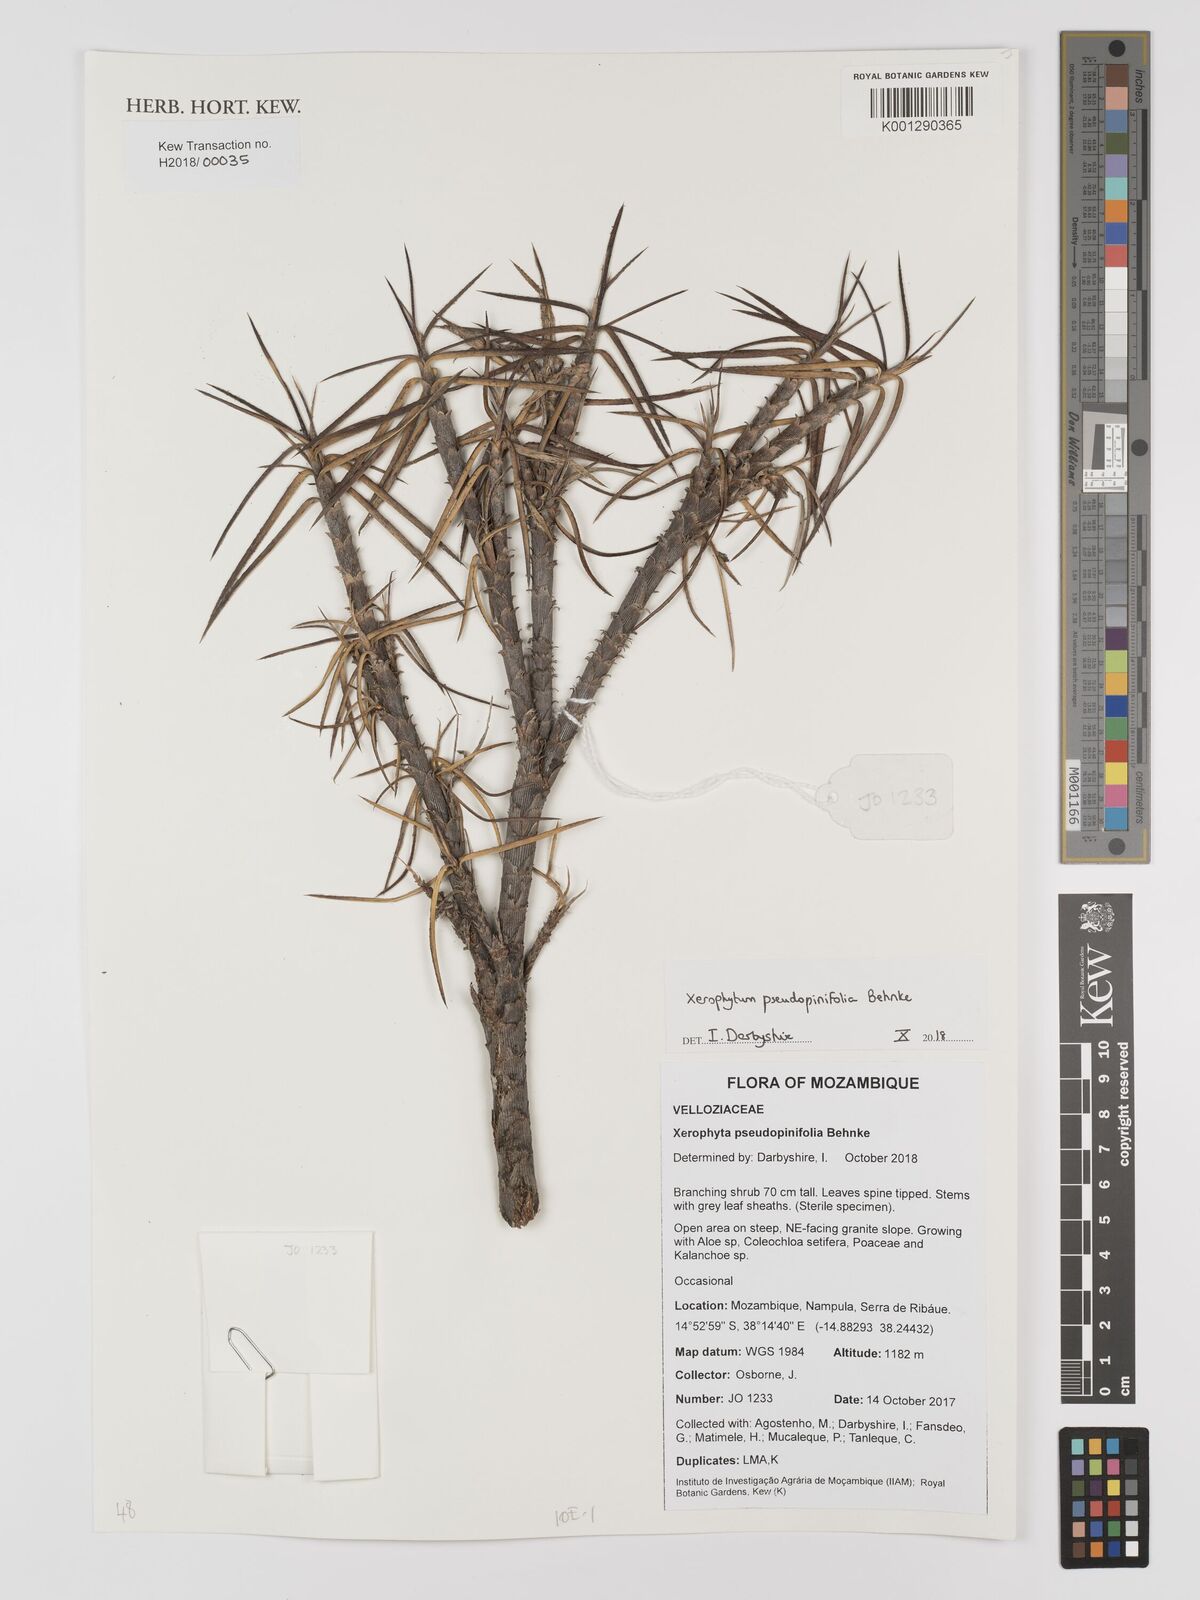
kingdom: Plantae
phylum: Tracheophyta
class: Liliopsida
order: Pandanales
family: Velloziaceae
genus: Xerophyta
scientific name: Xerophyta pseudopinifolia
